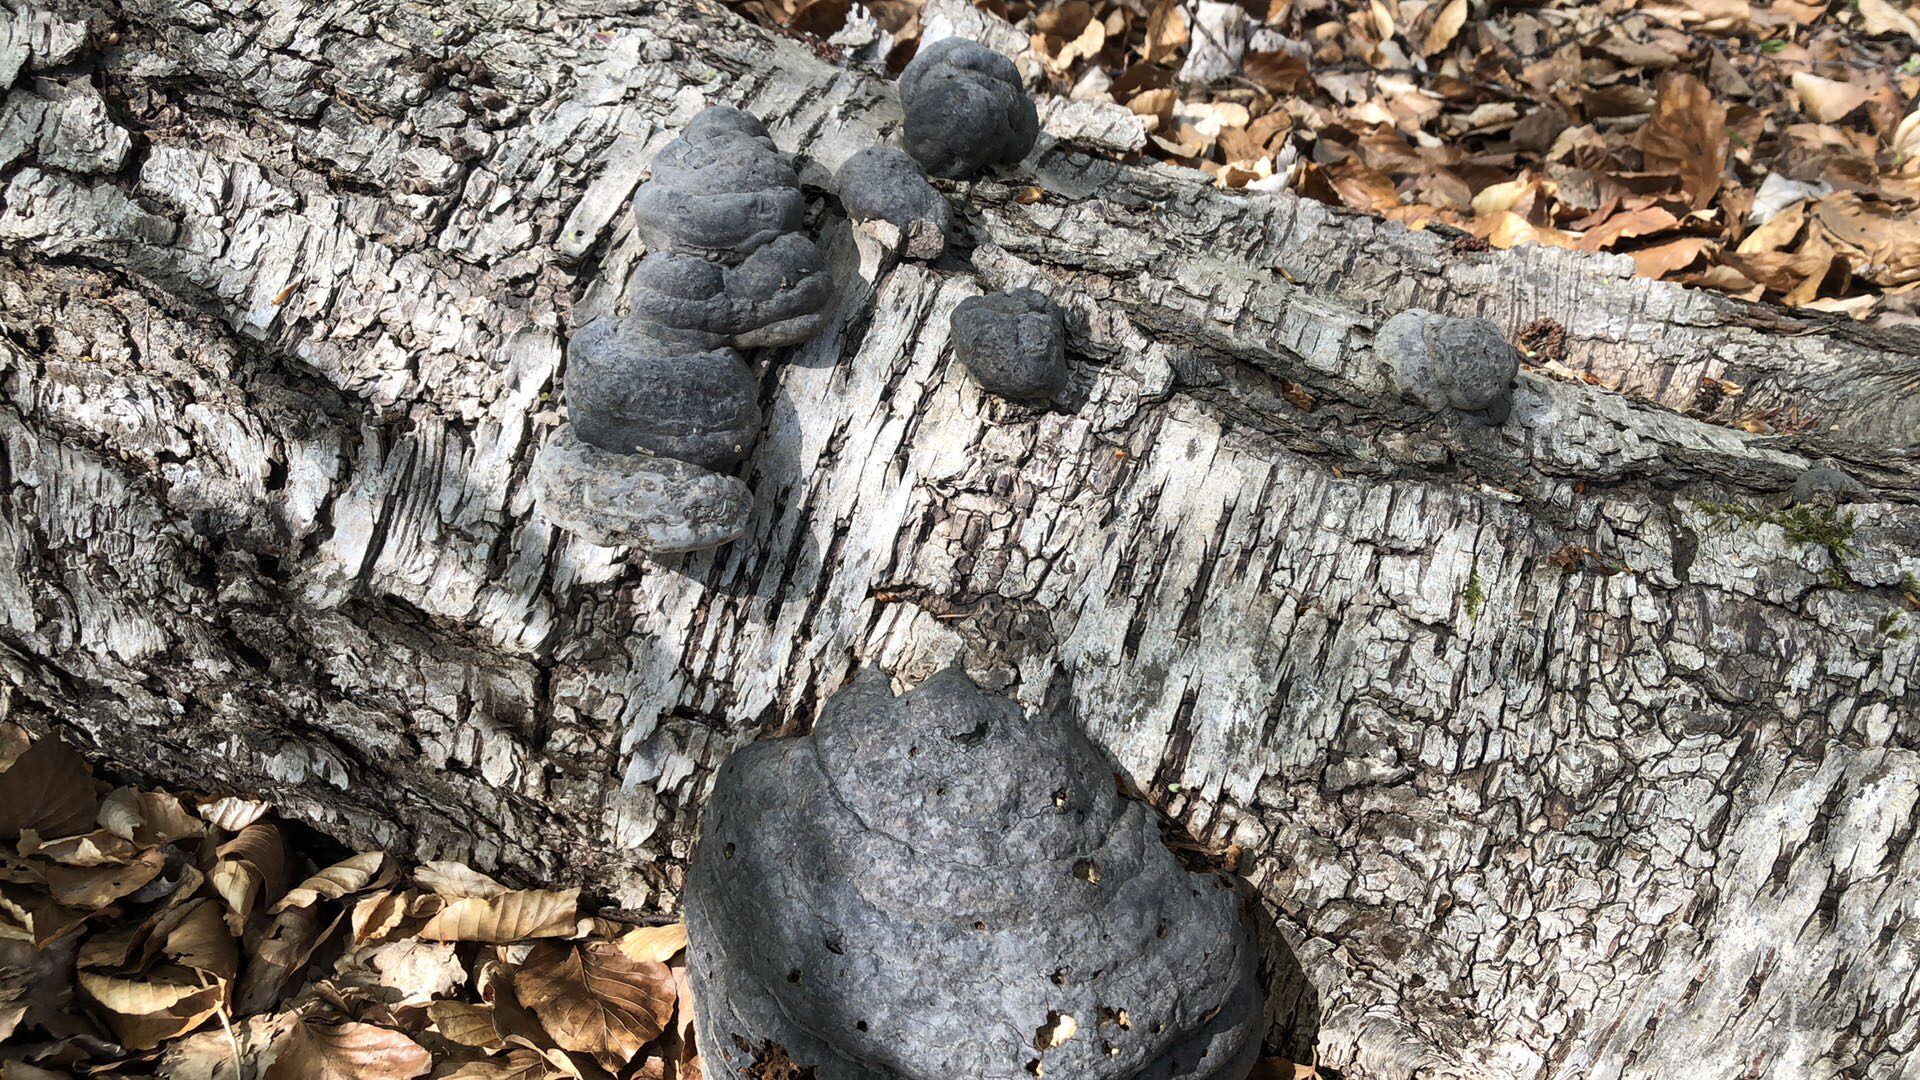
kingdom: Fungi
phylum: Basidiomycota
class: Agaricomycetes
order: Polyporales
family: Polyporaceae
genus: Fomes
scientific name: Fomes fomentarius
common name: tøndersvamp
